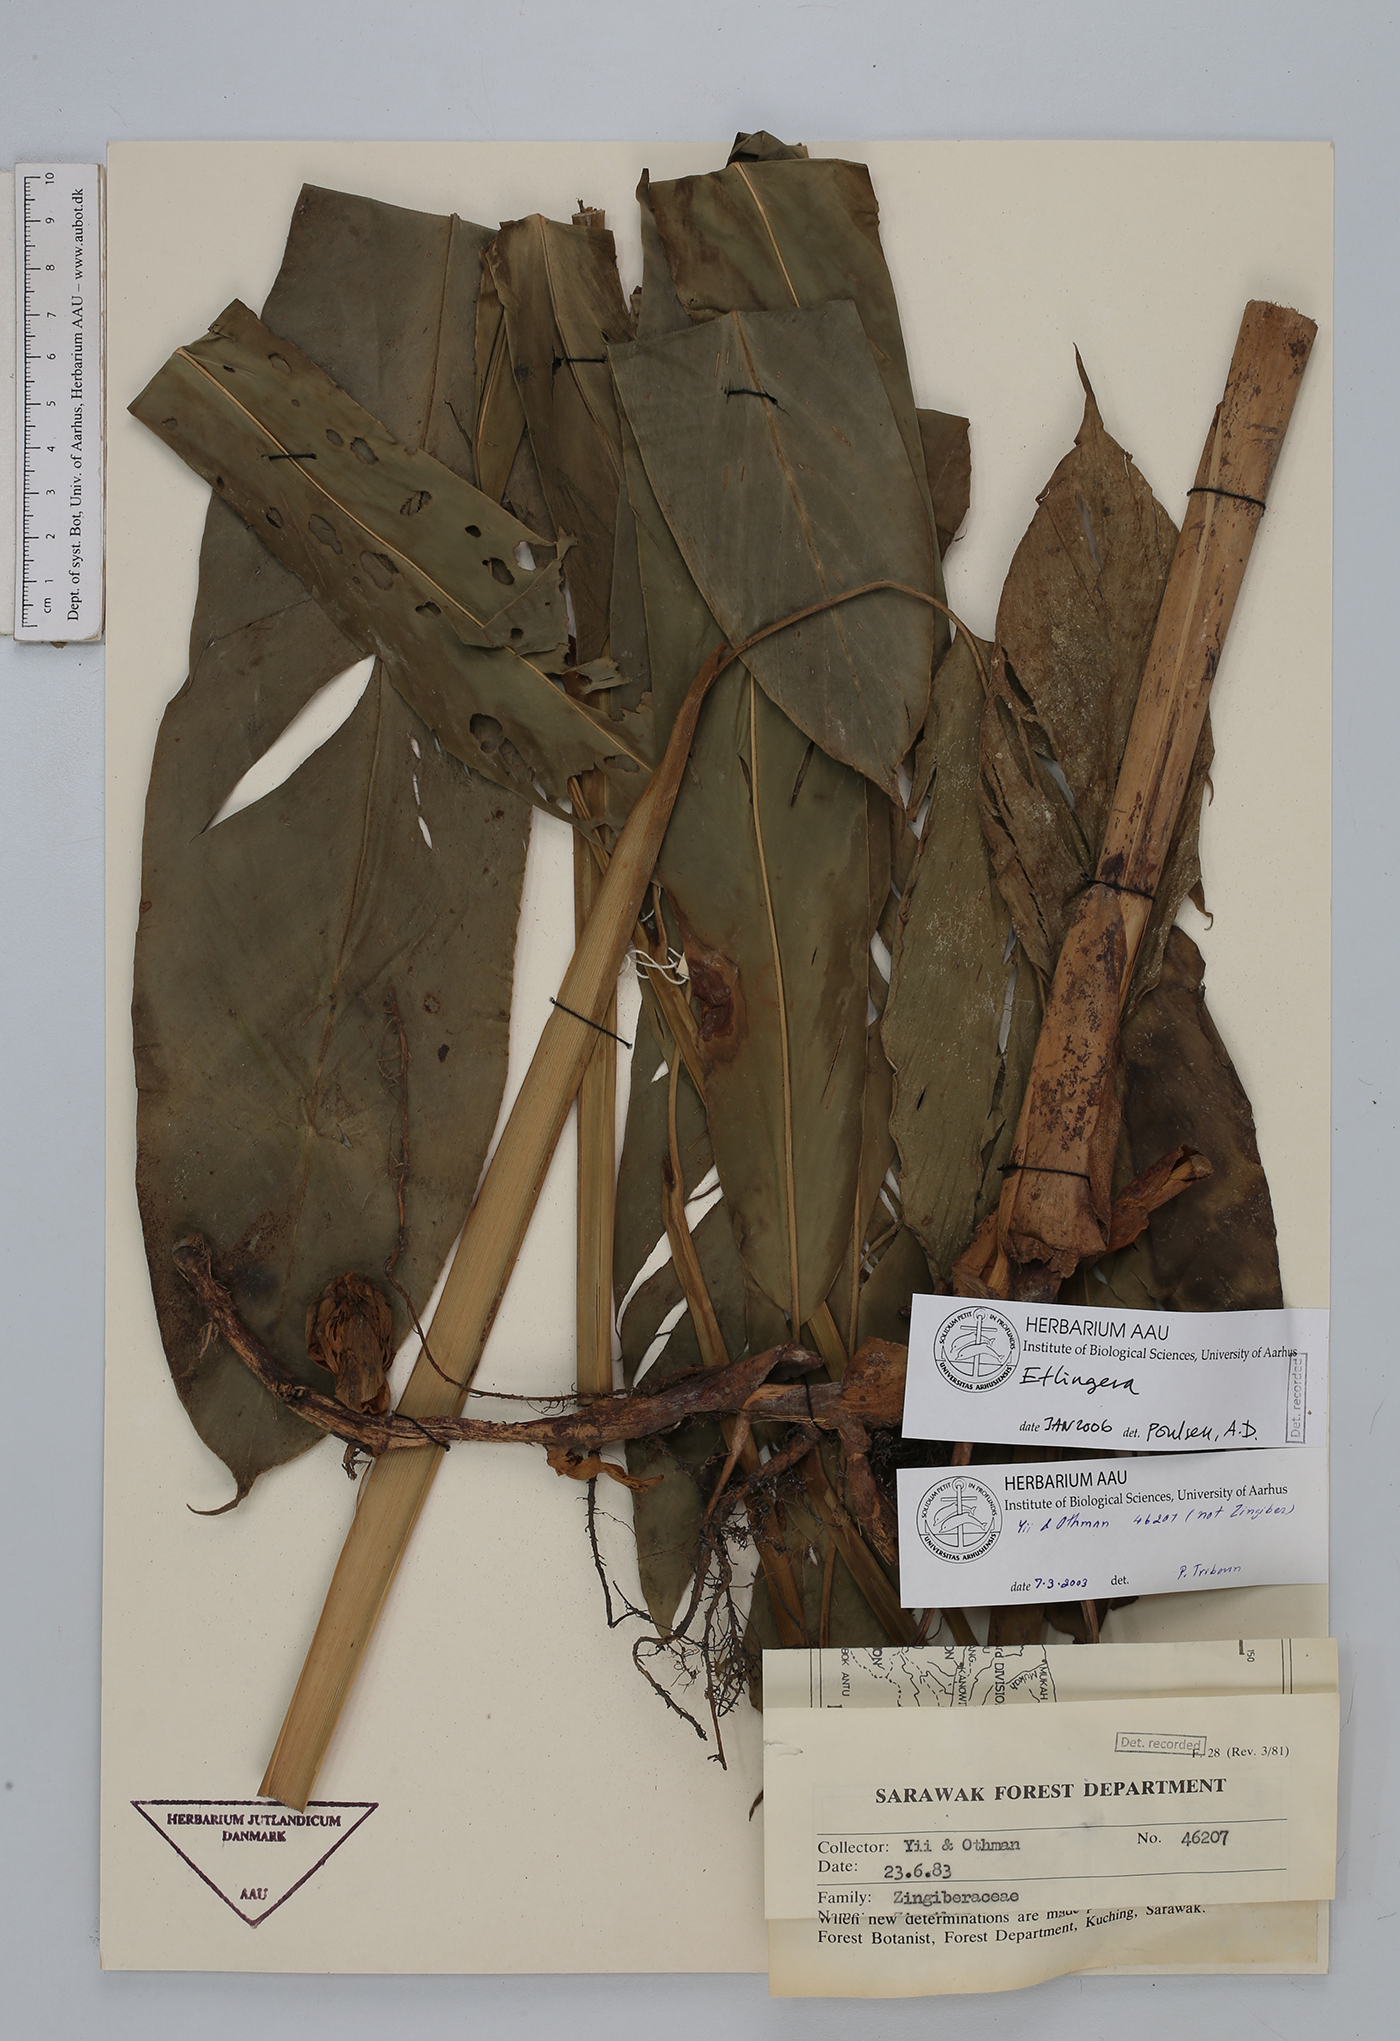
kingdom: Plantae
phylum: Tracheophyta
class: Liliopsida
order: Zingiberales
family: Zingiberaceae
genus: Etlingera
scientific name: Etlingera
